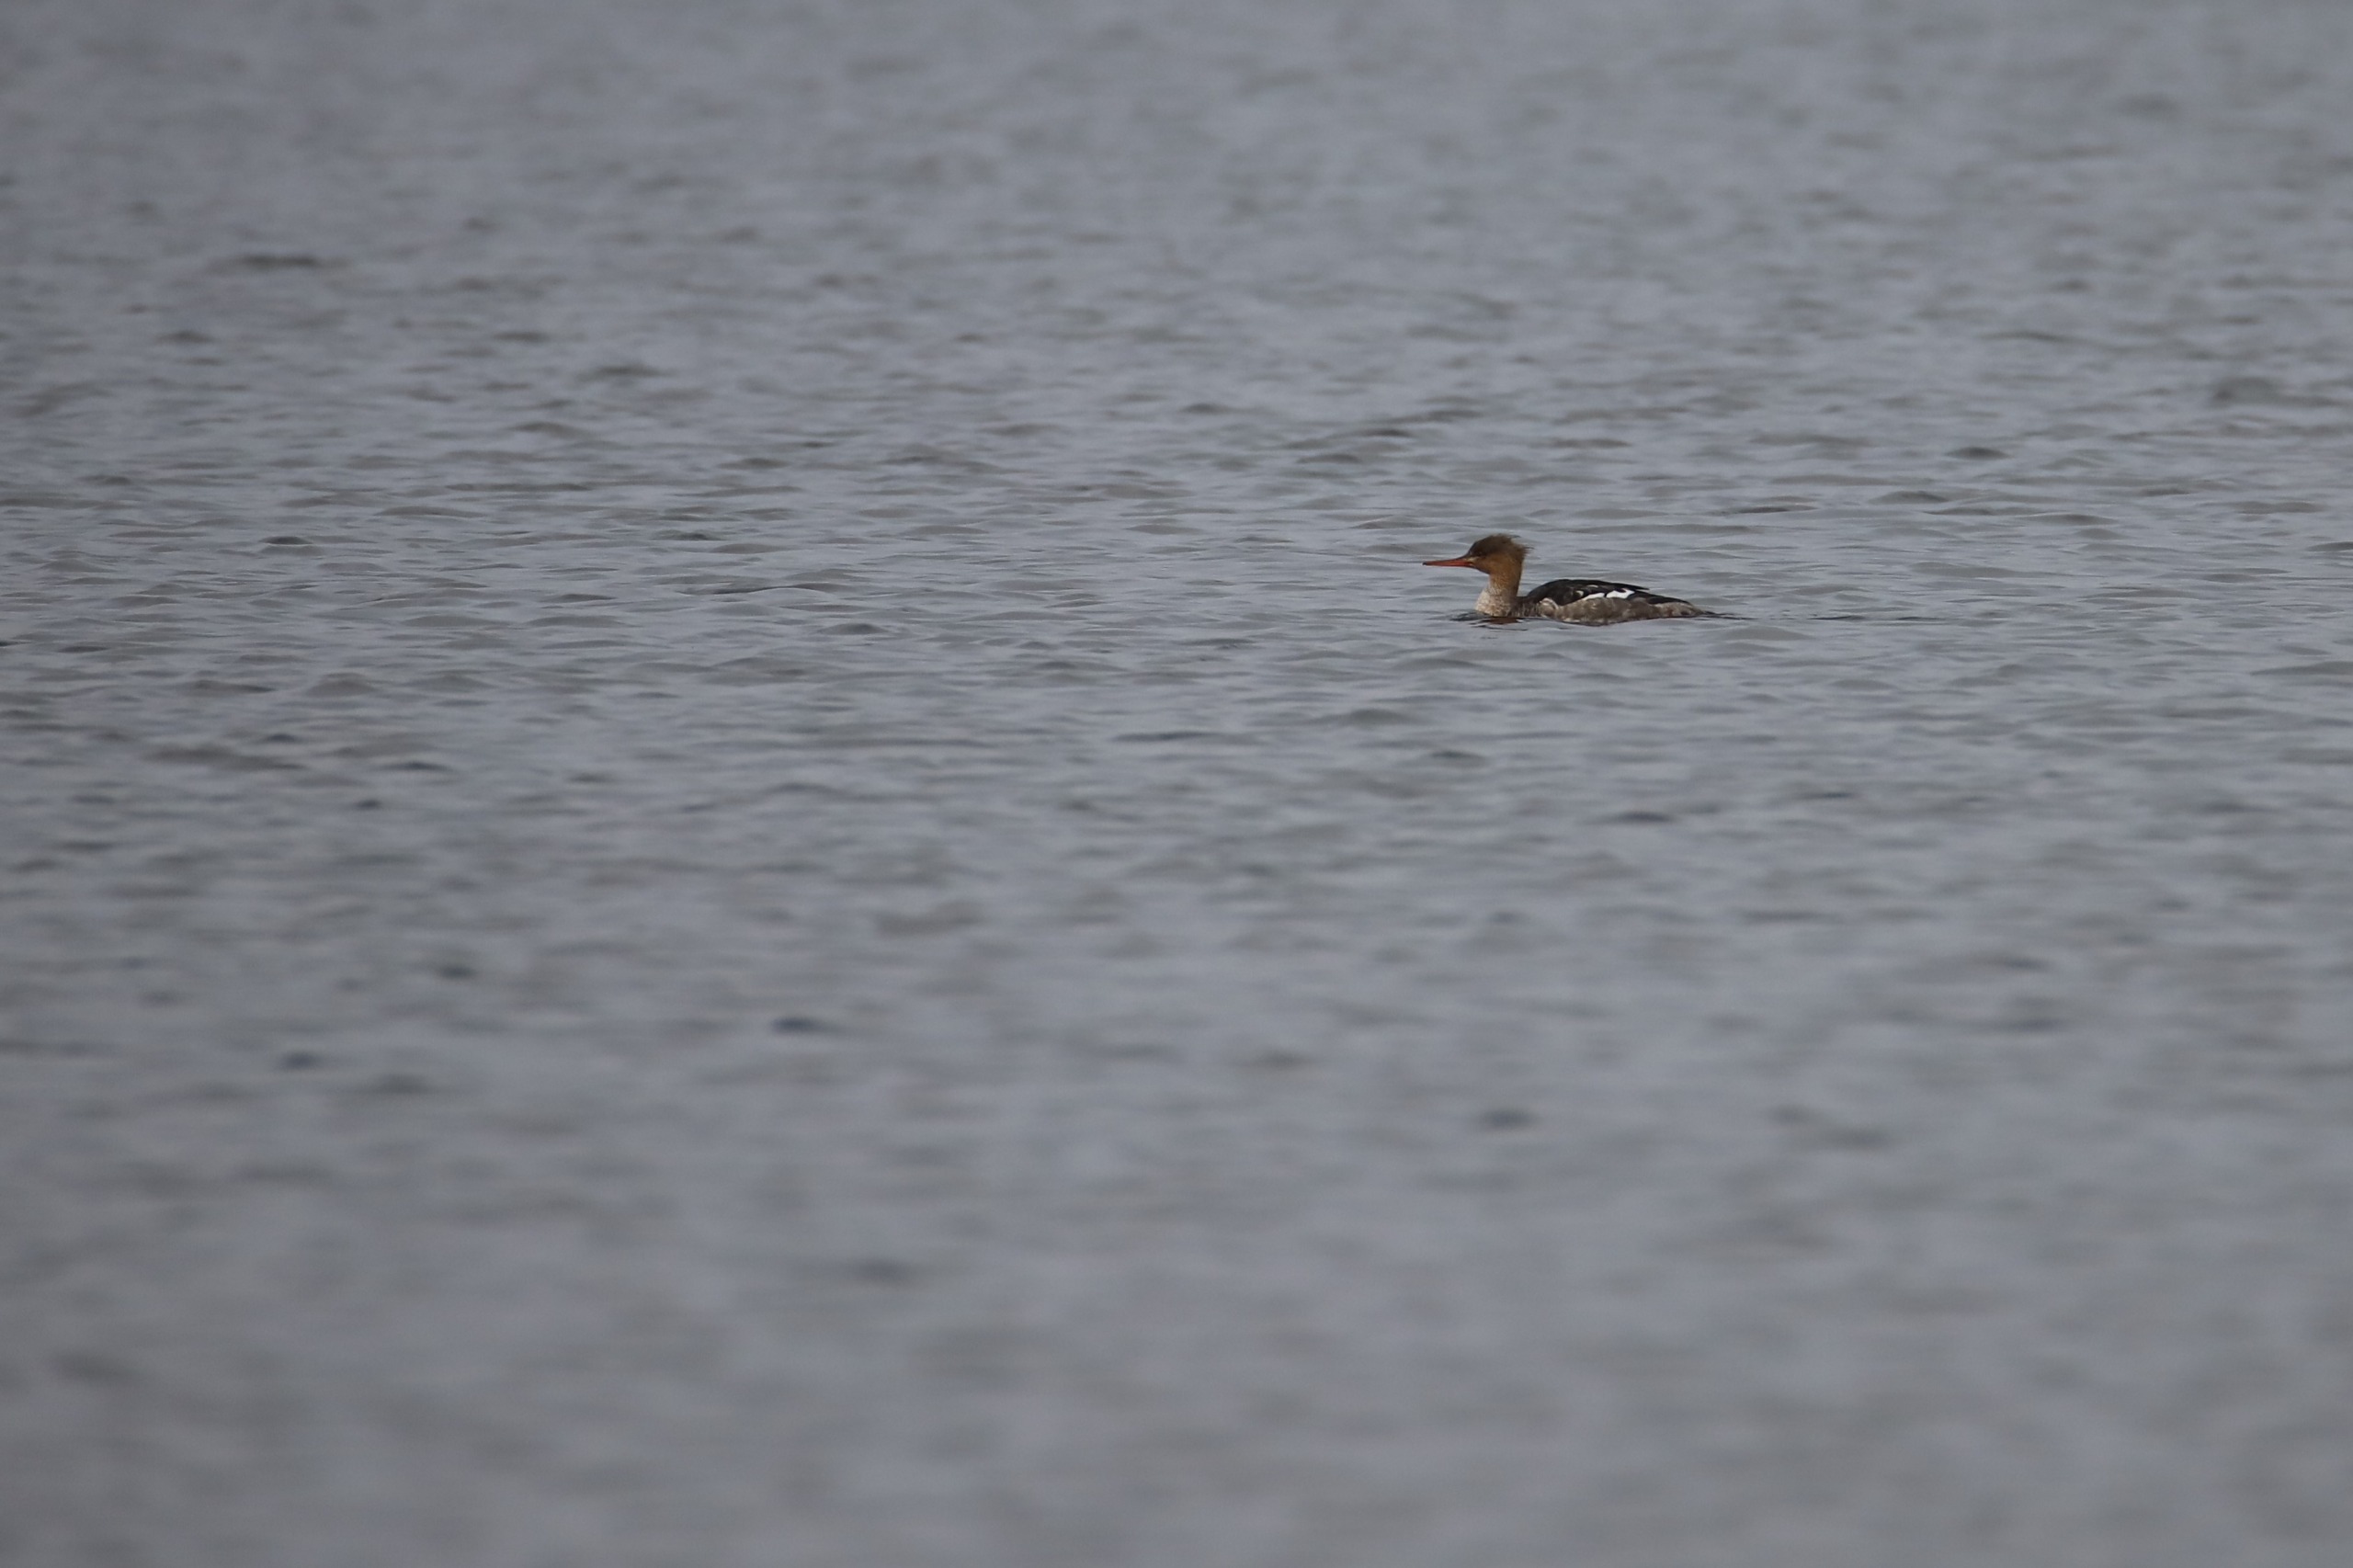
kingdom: Animalia
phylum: Chordata
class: Aves
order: Anseriformes
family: Anatidae
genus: Mergus
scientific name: Mergus serrator
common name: Toppet skallesluger
